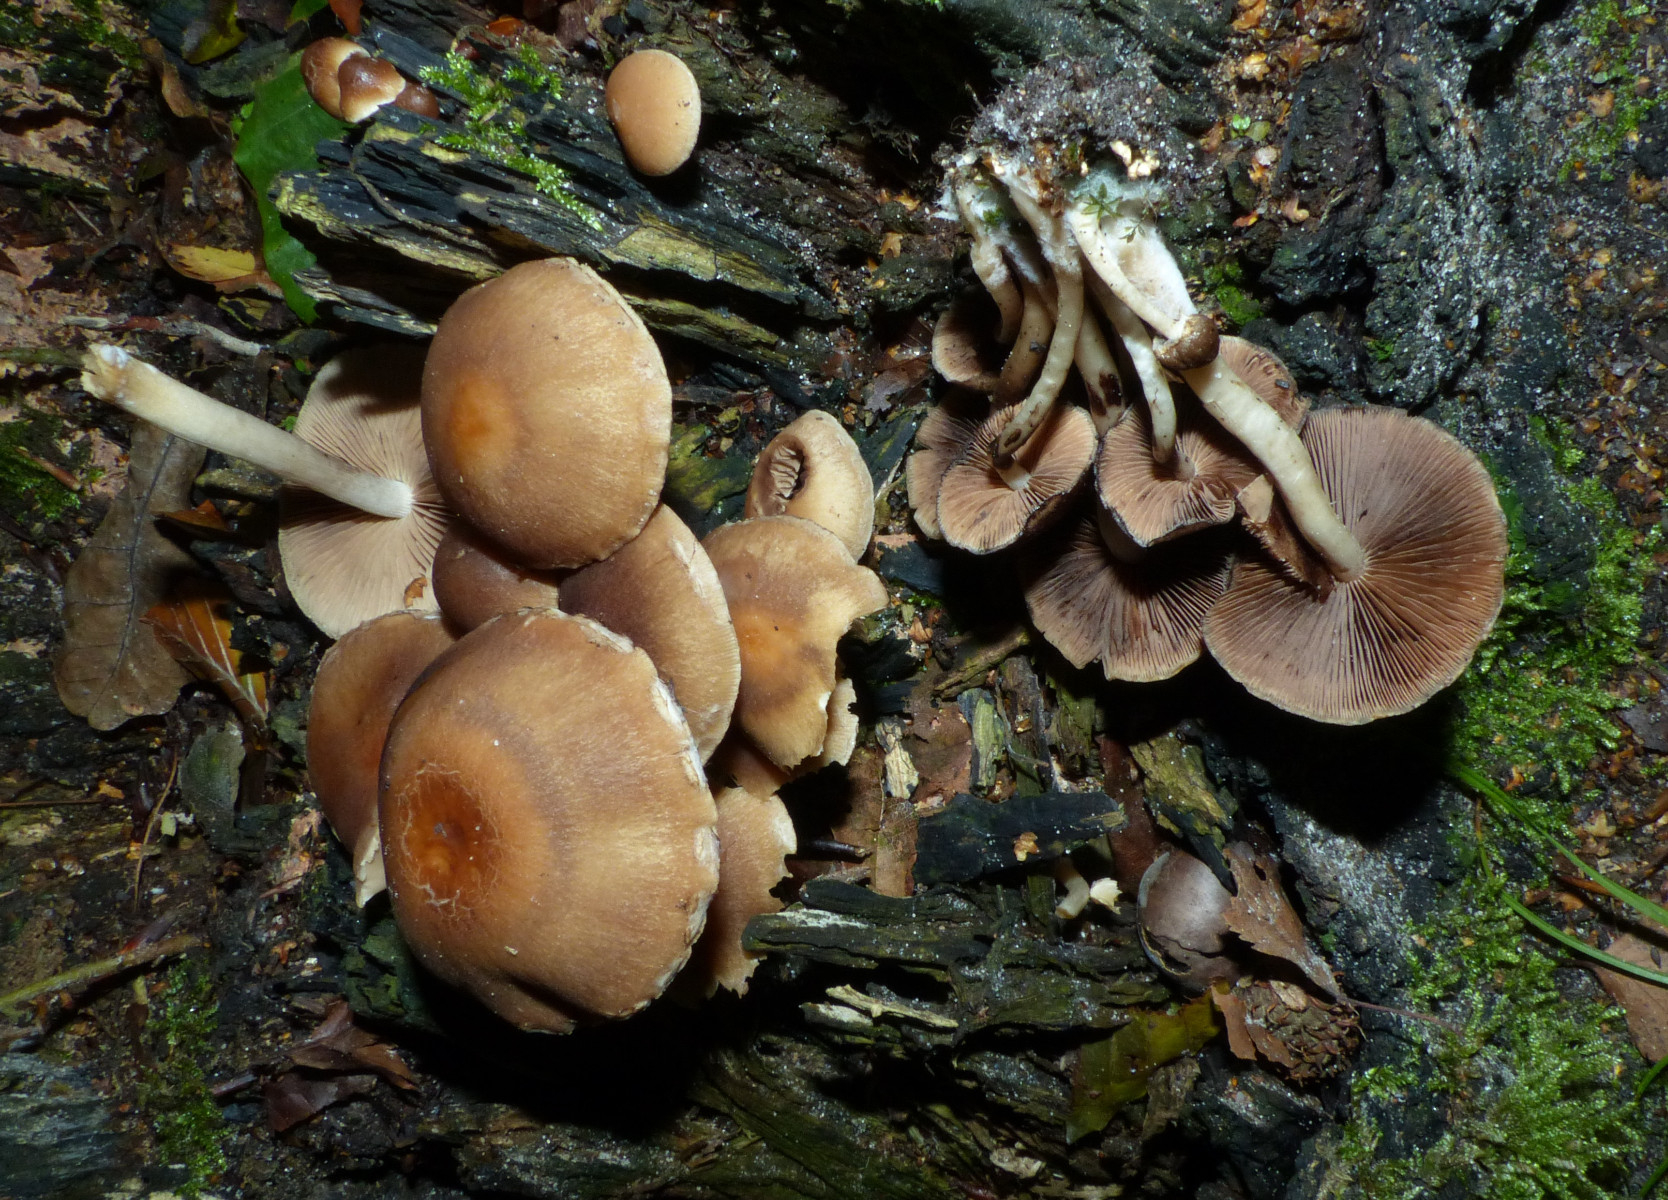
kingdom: Fungi
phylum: Basidiomycota
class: Agaricomycetes
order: Agaricales
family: Psathyrellaceae
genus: Psathyrella
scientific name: Psathyrella piluliformis
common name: lysstokket mørkhat
